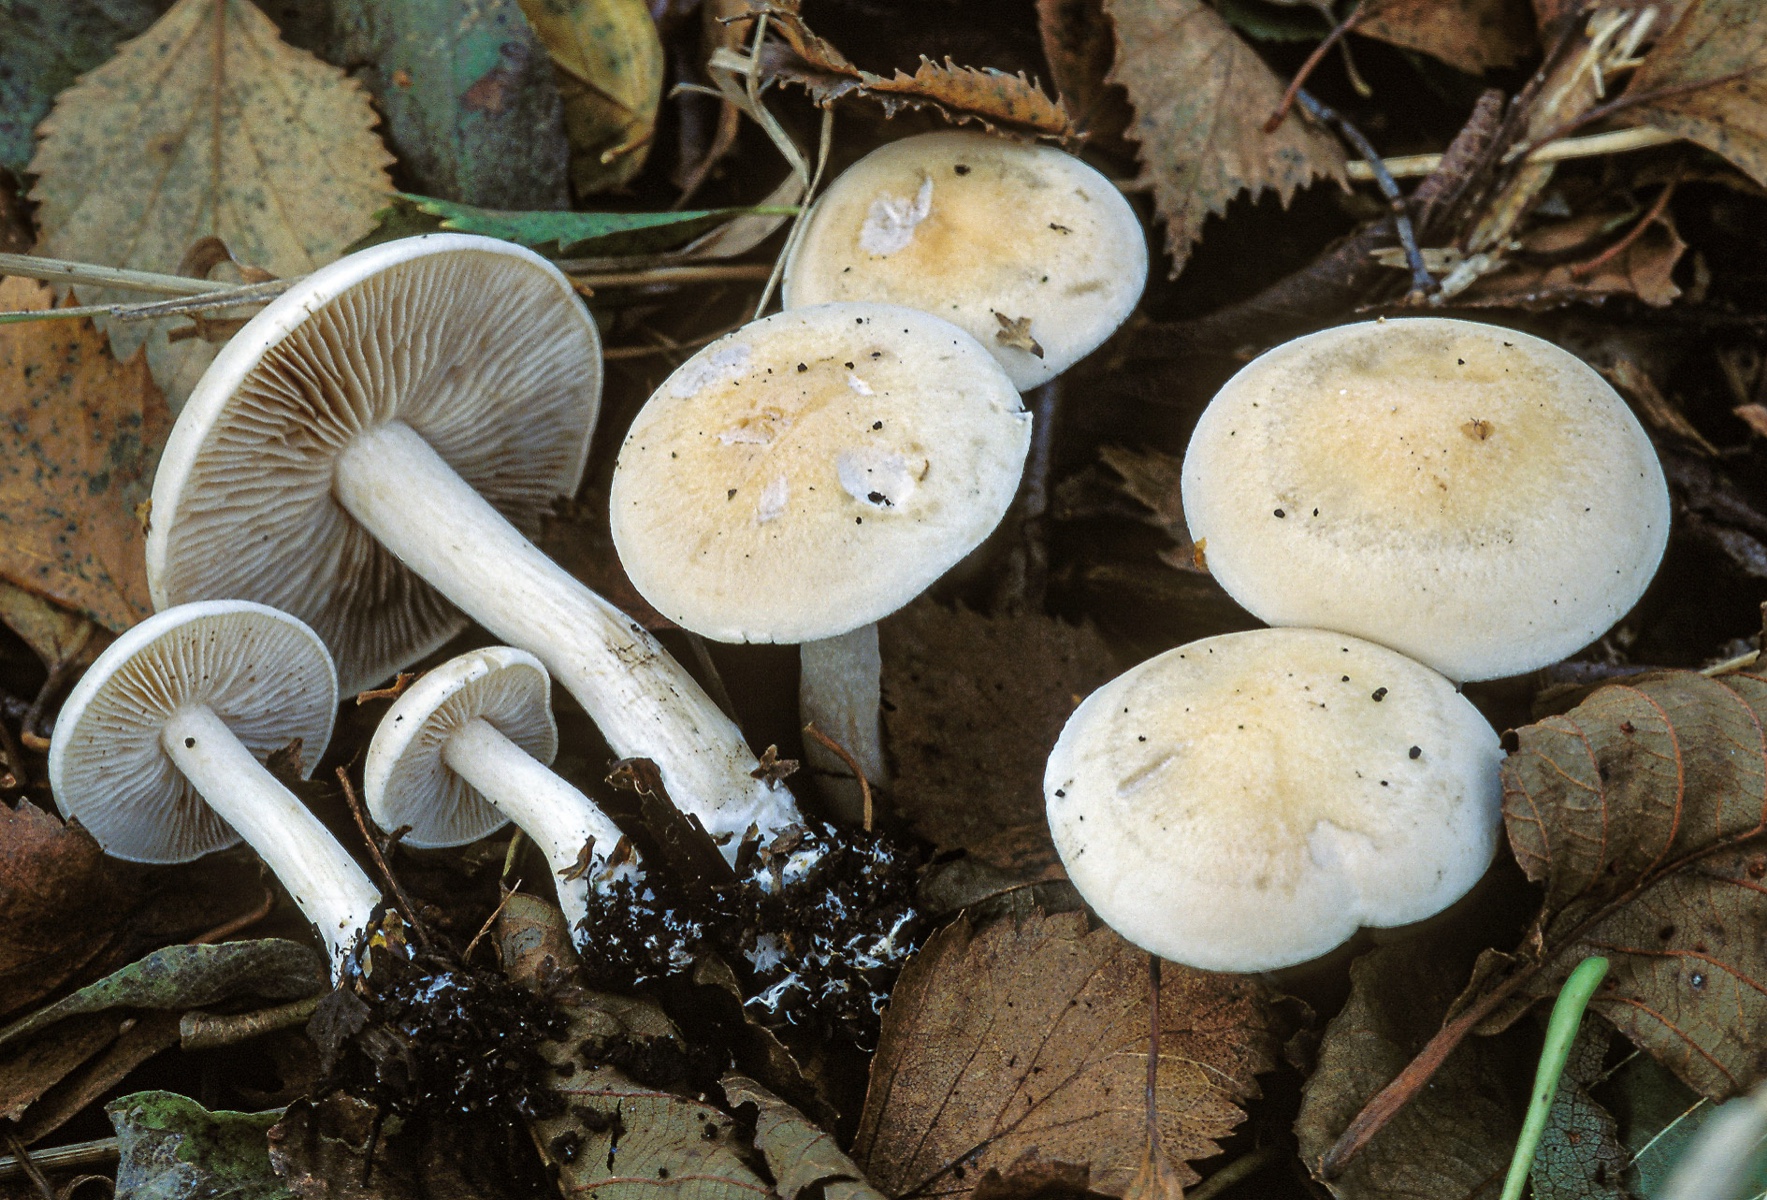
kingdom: Fungi
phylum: Basidiomycota
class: Agaricomycetes
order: Agaricales
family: Hymenogastraceae
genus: Hebeloma
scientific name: Hebeloma hiemale
